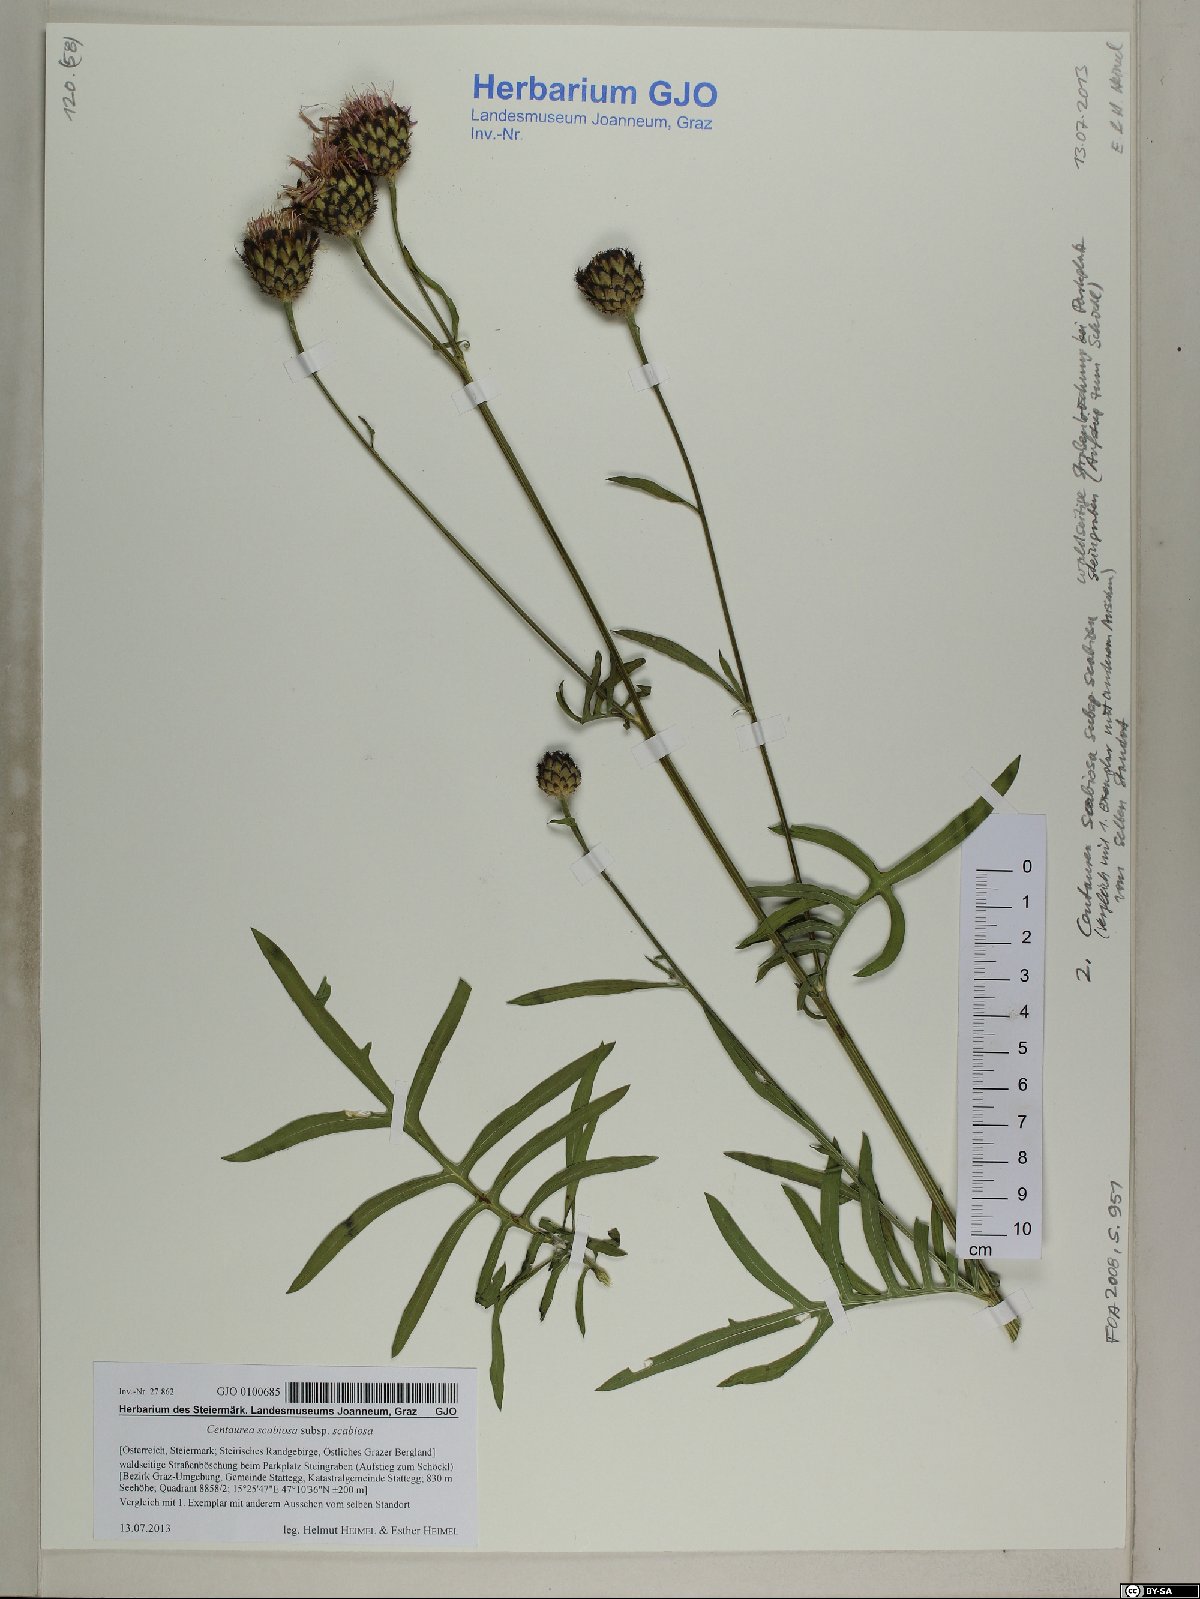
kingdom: Plantae
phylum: Tracheophyta
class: Magnoliopsida
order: Asterales
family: Asteraceae
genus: Centaurea
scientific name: Centaurea scabiosa
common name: Greater knapweed
